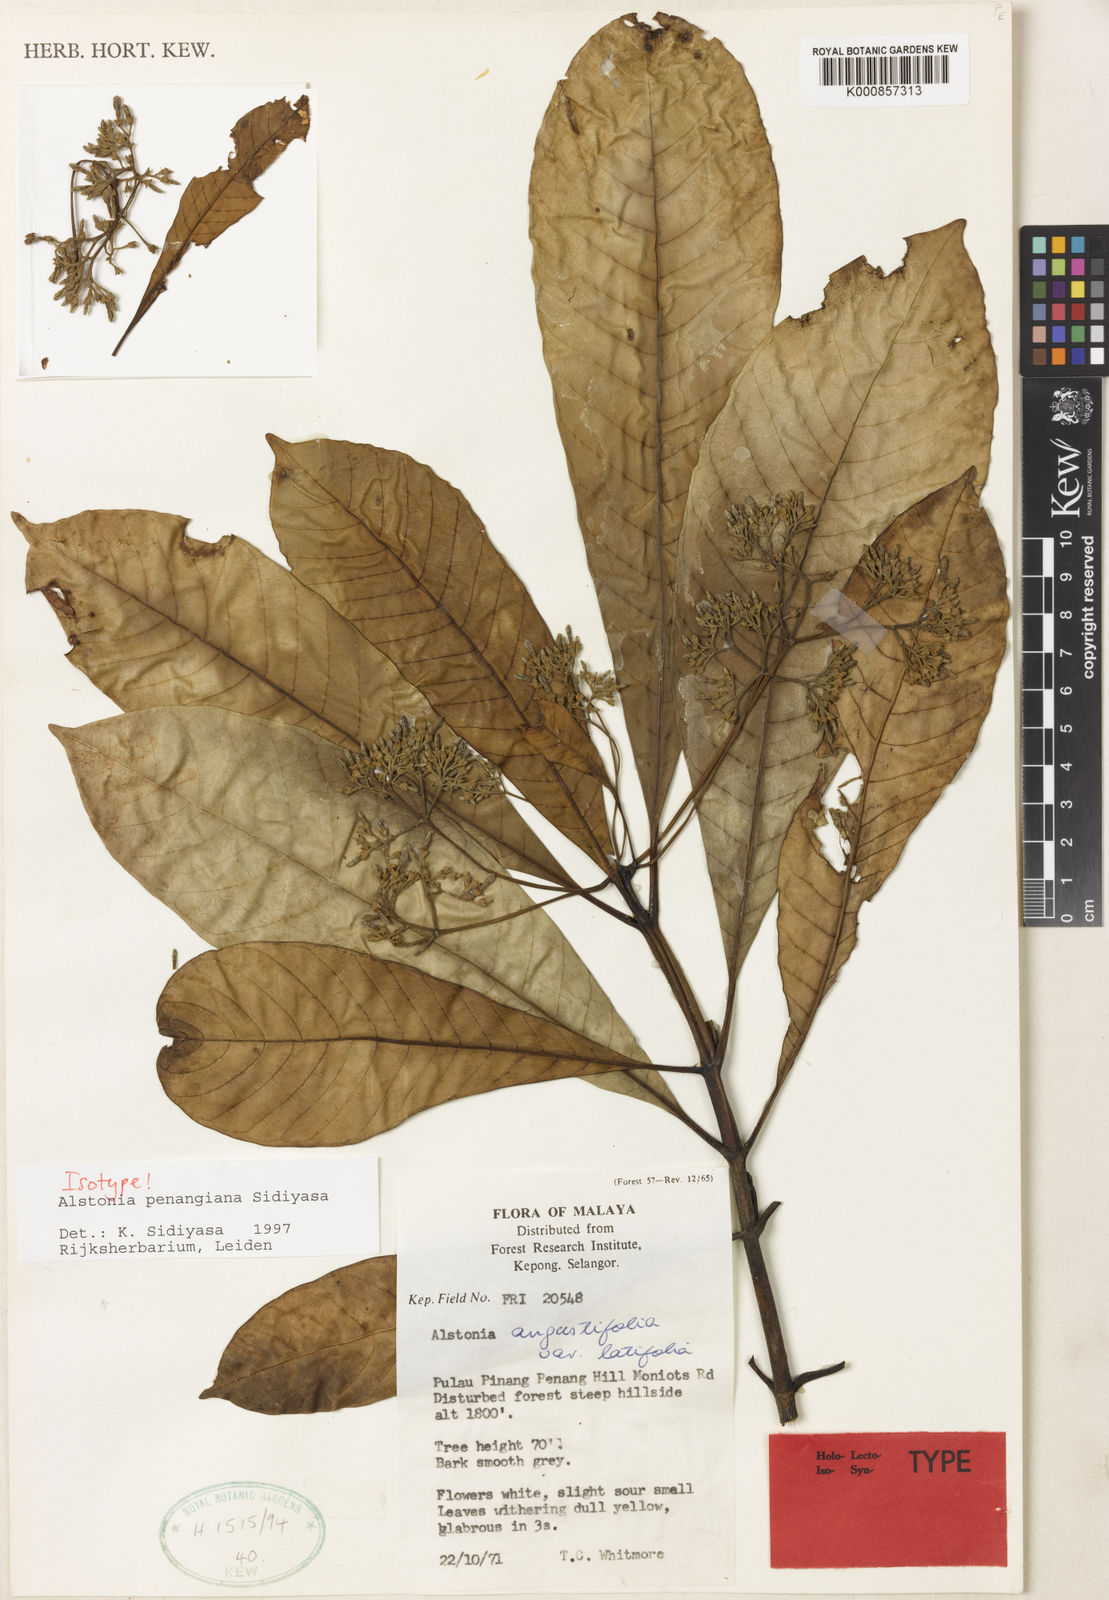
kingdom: Plantae
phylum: Tracheophyta
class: Magnoliopsida
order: Gentianales
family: Apocynaceae
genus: Alstonia
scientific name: Alstonia penangiana
